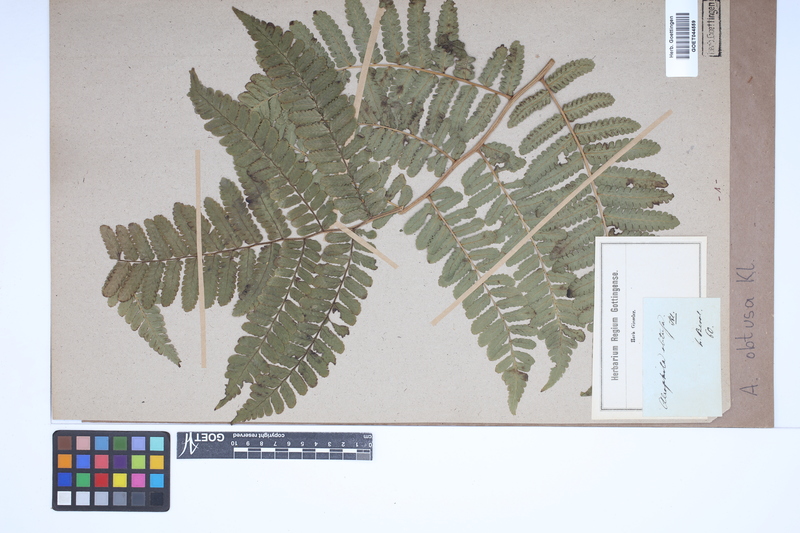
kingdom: Plantae
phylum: Tracheophyta
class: Polypodiopsida
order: Cyatheales
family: Cyatheaceae
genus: Cyathea
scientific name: Cyathea pungens
